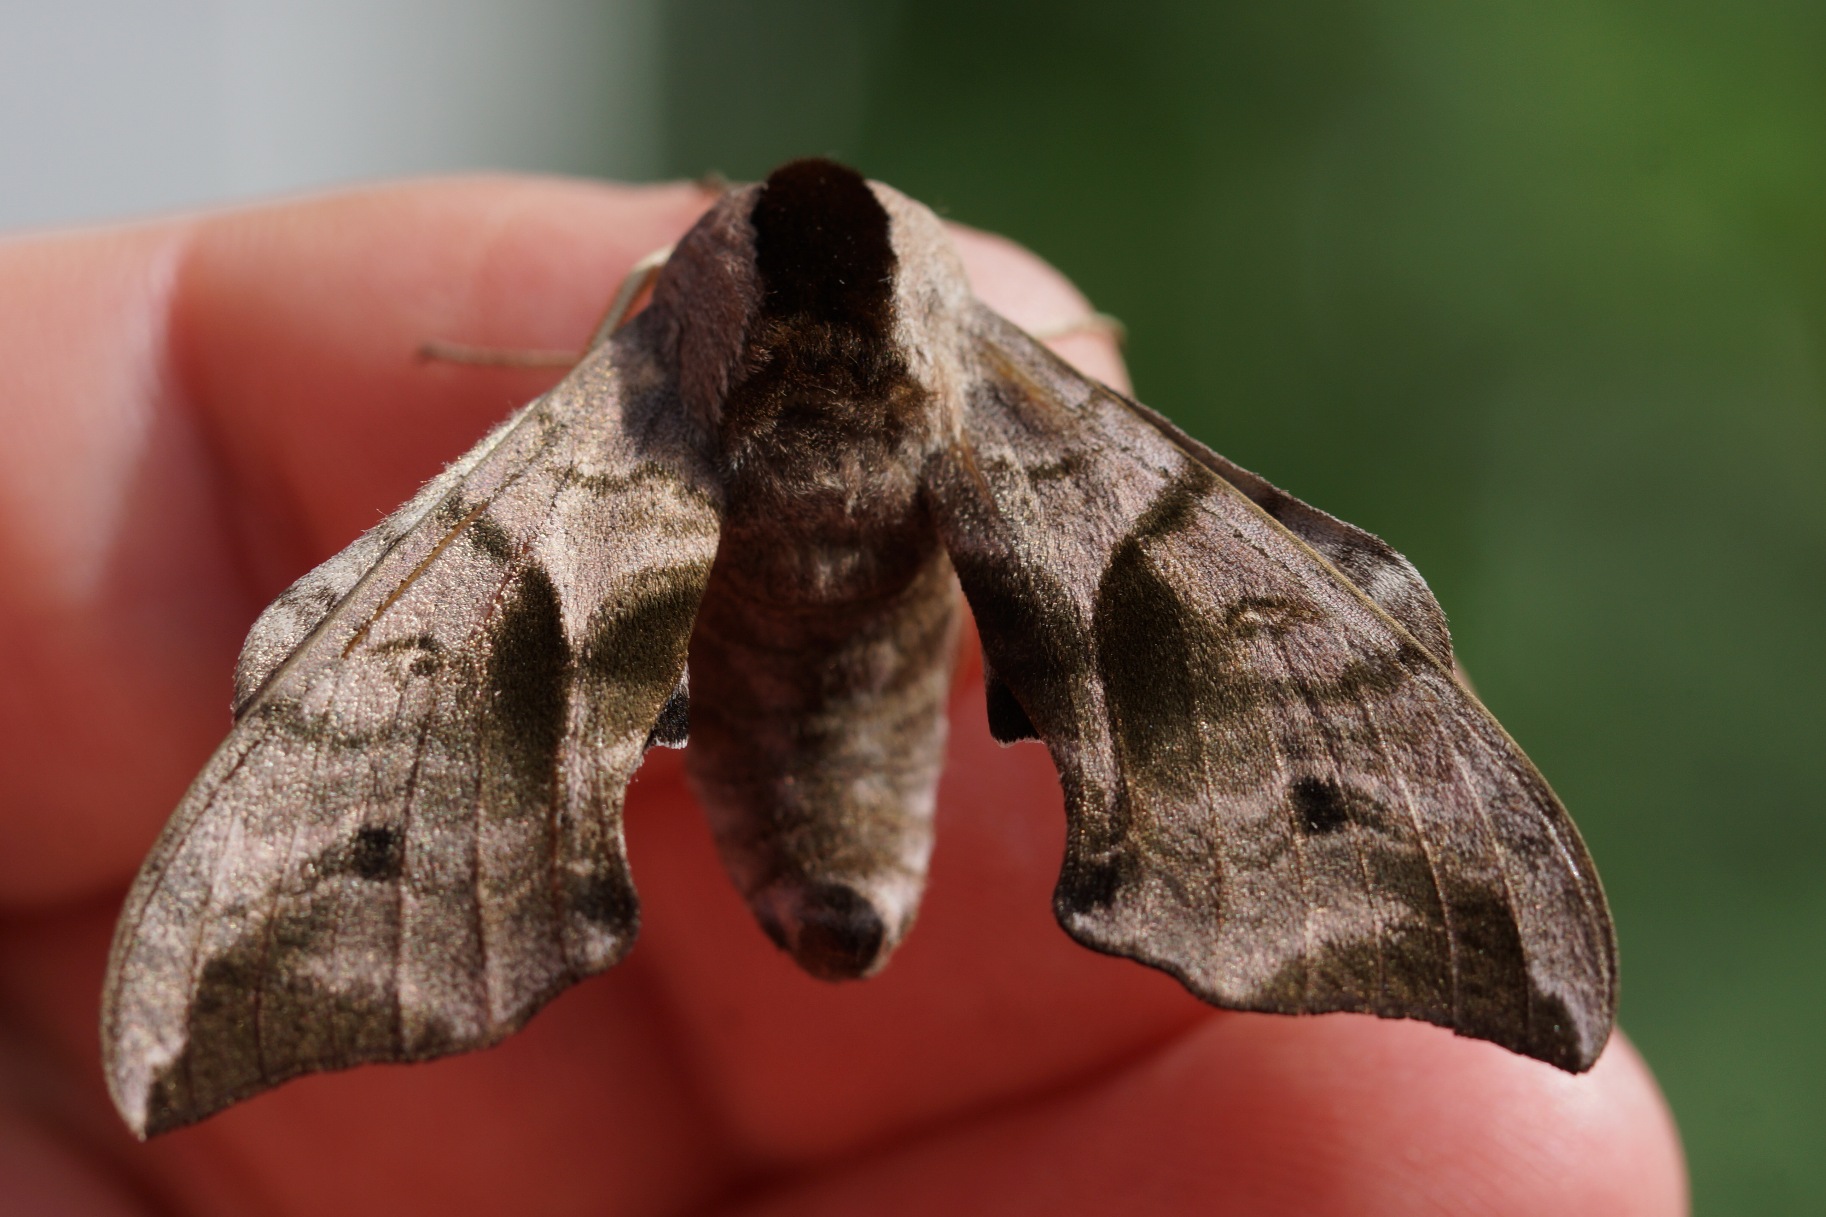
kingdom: Animalia
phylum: Arthropoda
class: Insecta
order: Lepidoptera
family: Sphingidae
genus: Smerinthus
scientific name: Smerinthus ocellata
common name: Aftenpåfugleøje
